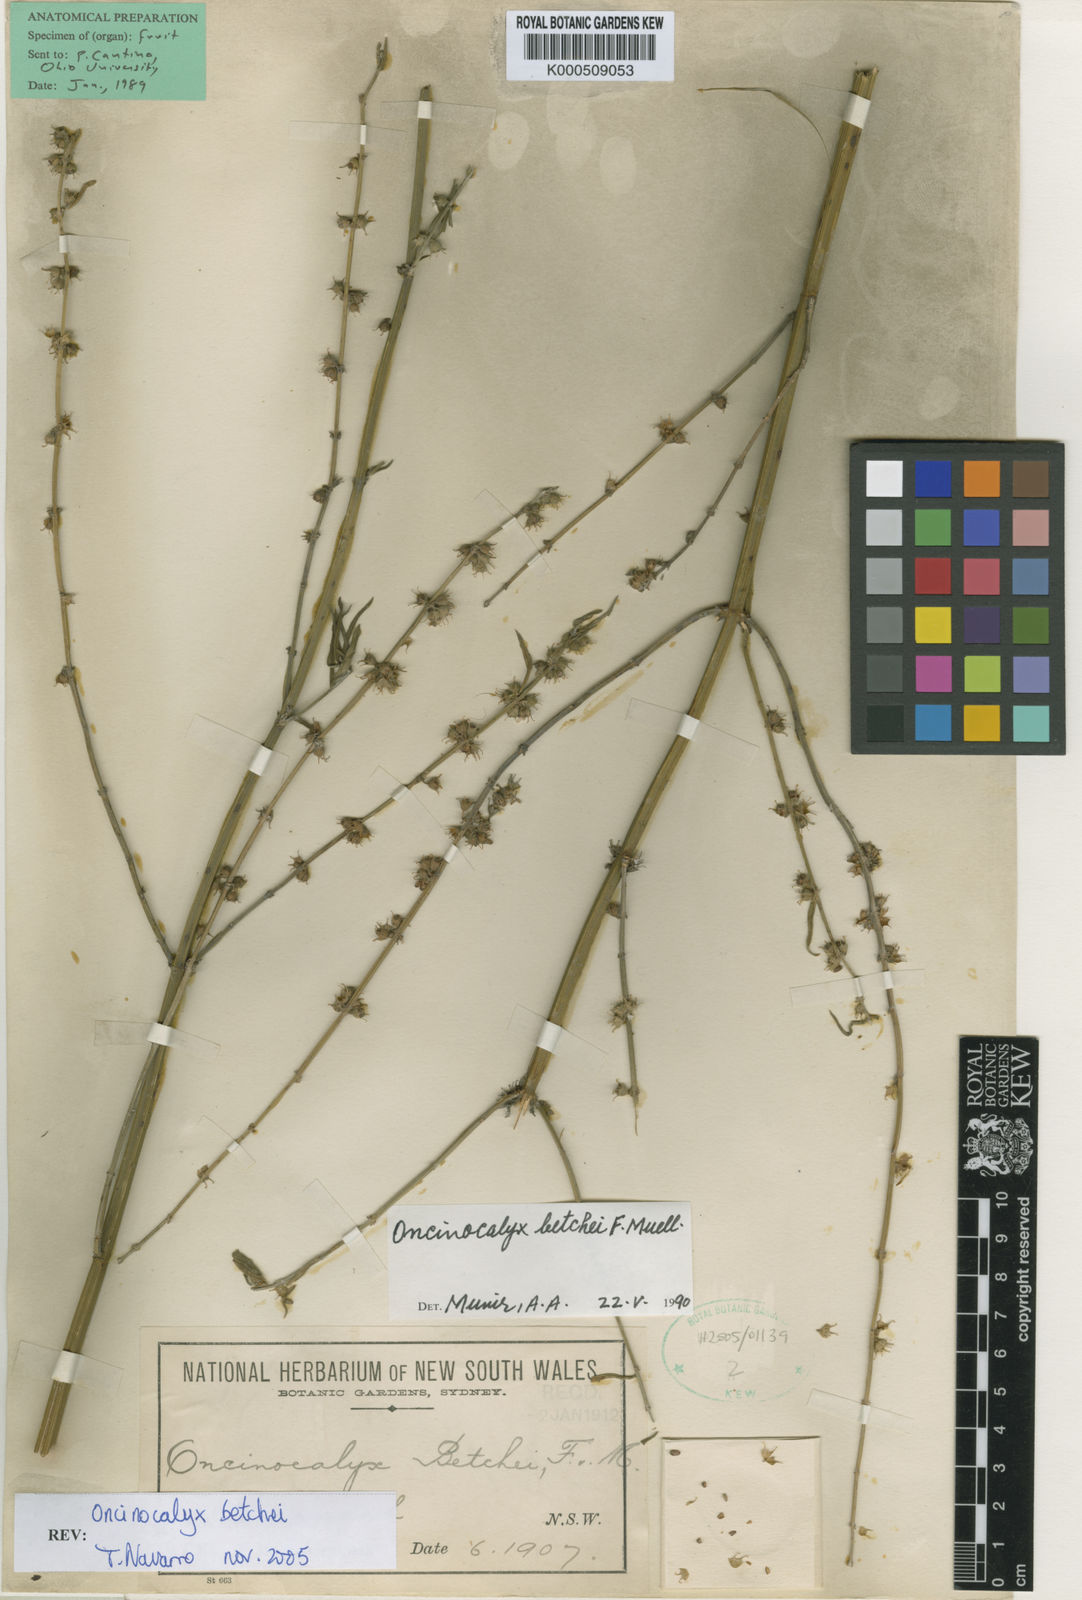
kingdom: Plantae
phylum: Tracheophyta
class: Magnoliopsida
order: Lamiales
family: Lamiaceae
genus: Teucrium
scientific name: Teucrium betchei
